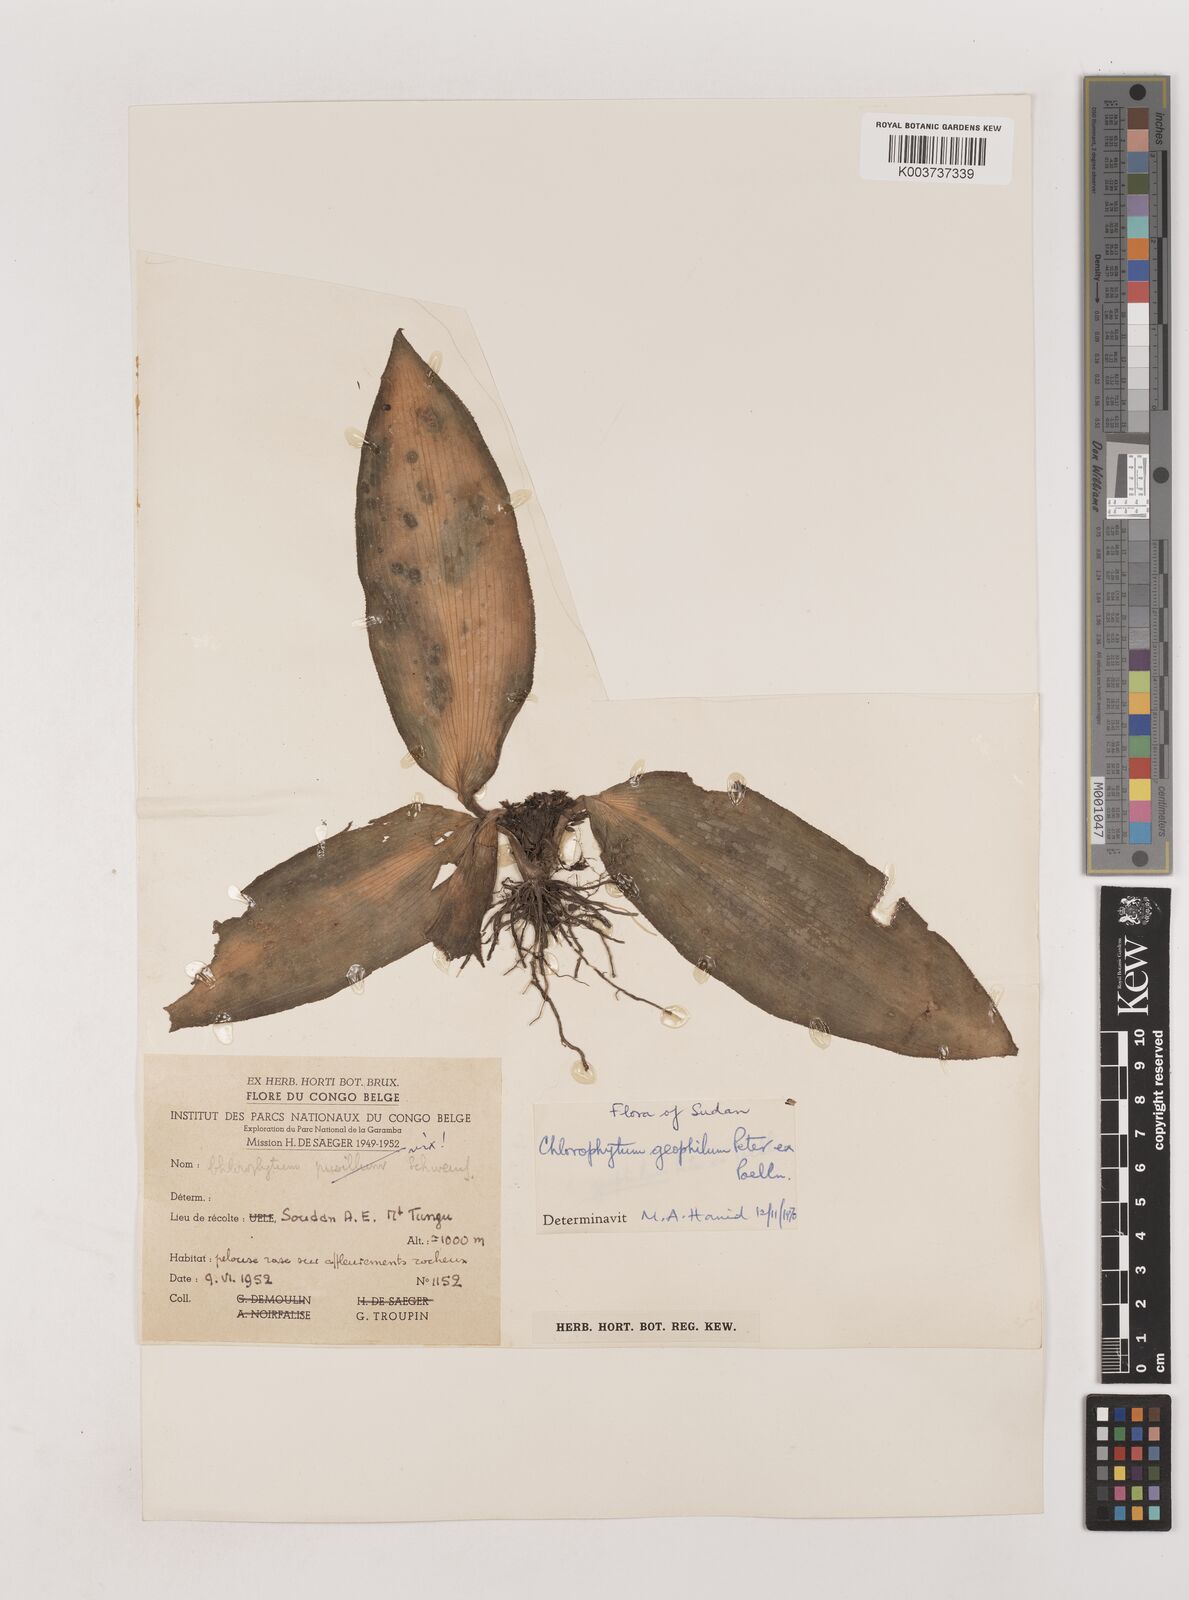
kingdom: Plantae
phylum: Tracheophyta
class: Liliopsida
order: Asparagales
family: Asparagaceae
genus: Chlorophytum
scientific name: Chlorophytum geophilum
